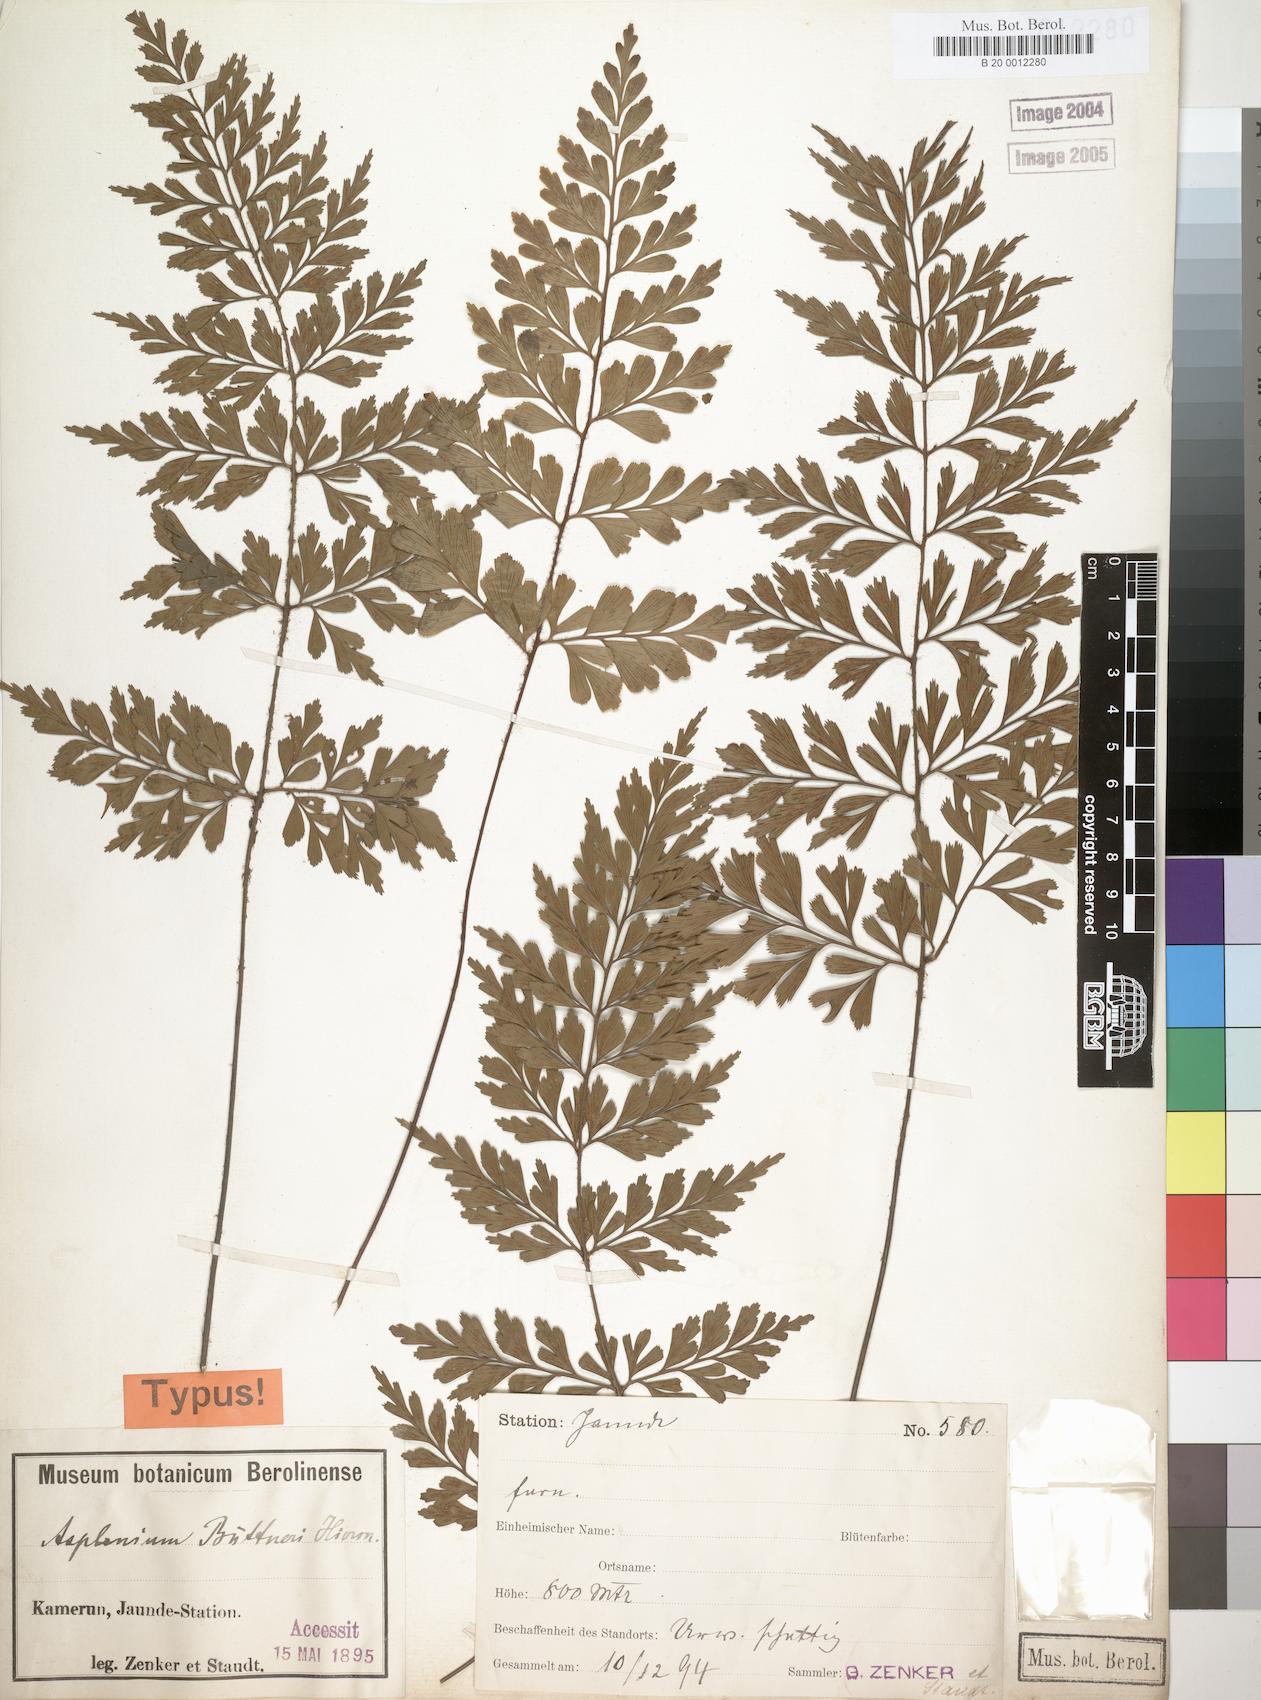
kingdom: Plantae
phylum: Tracheophyta
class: Polypodiopsida
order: Polypodiales
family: Aspleniaceae
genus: Asplenium
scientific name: Asplenium buettneri
